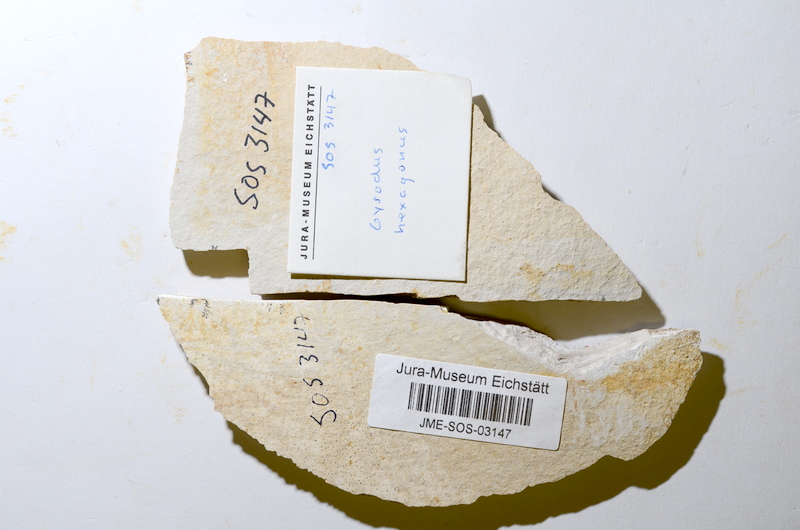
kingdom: Animalia
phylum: Chordata
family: Gyrodontidae
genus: Gyrodus
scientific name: Gyrodus hexagonus
